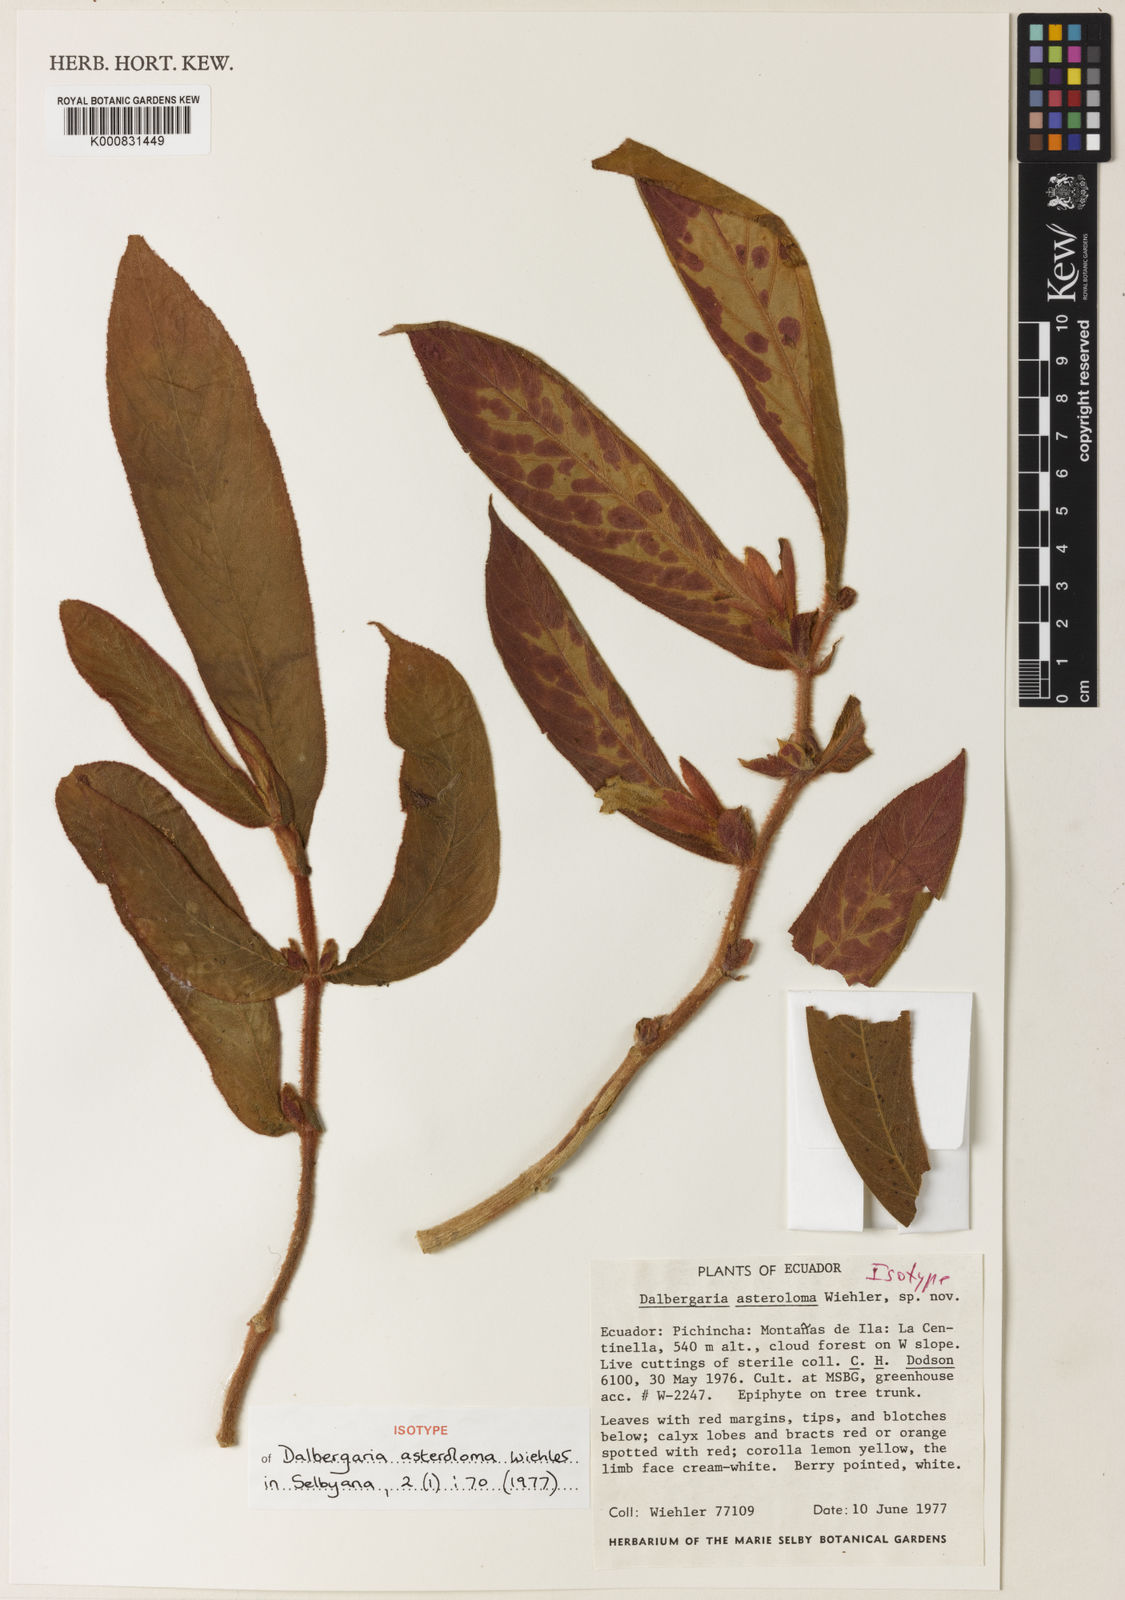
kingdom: Plantae
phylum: Tracheophyta
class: Magnoliopsida
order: Lamiales
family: Gesneriaceae
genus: Columnea
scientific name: Columnea asteroloma
